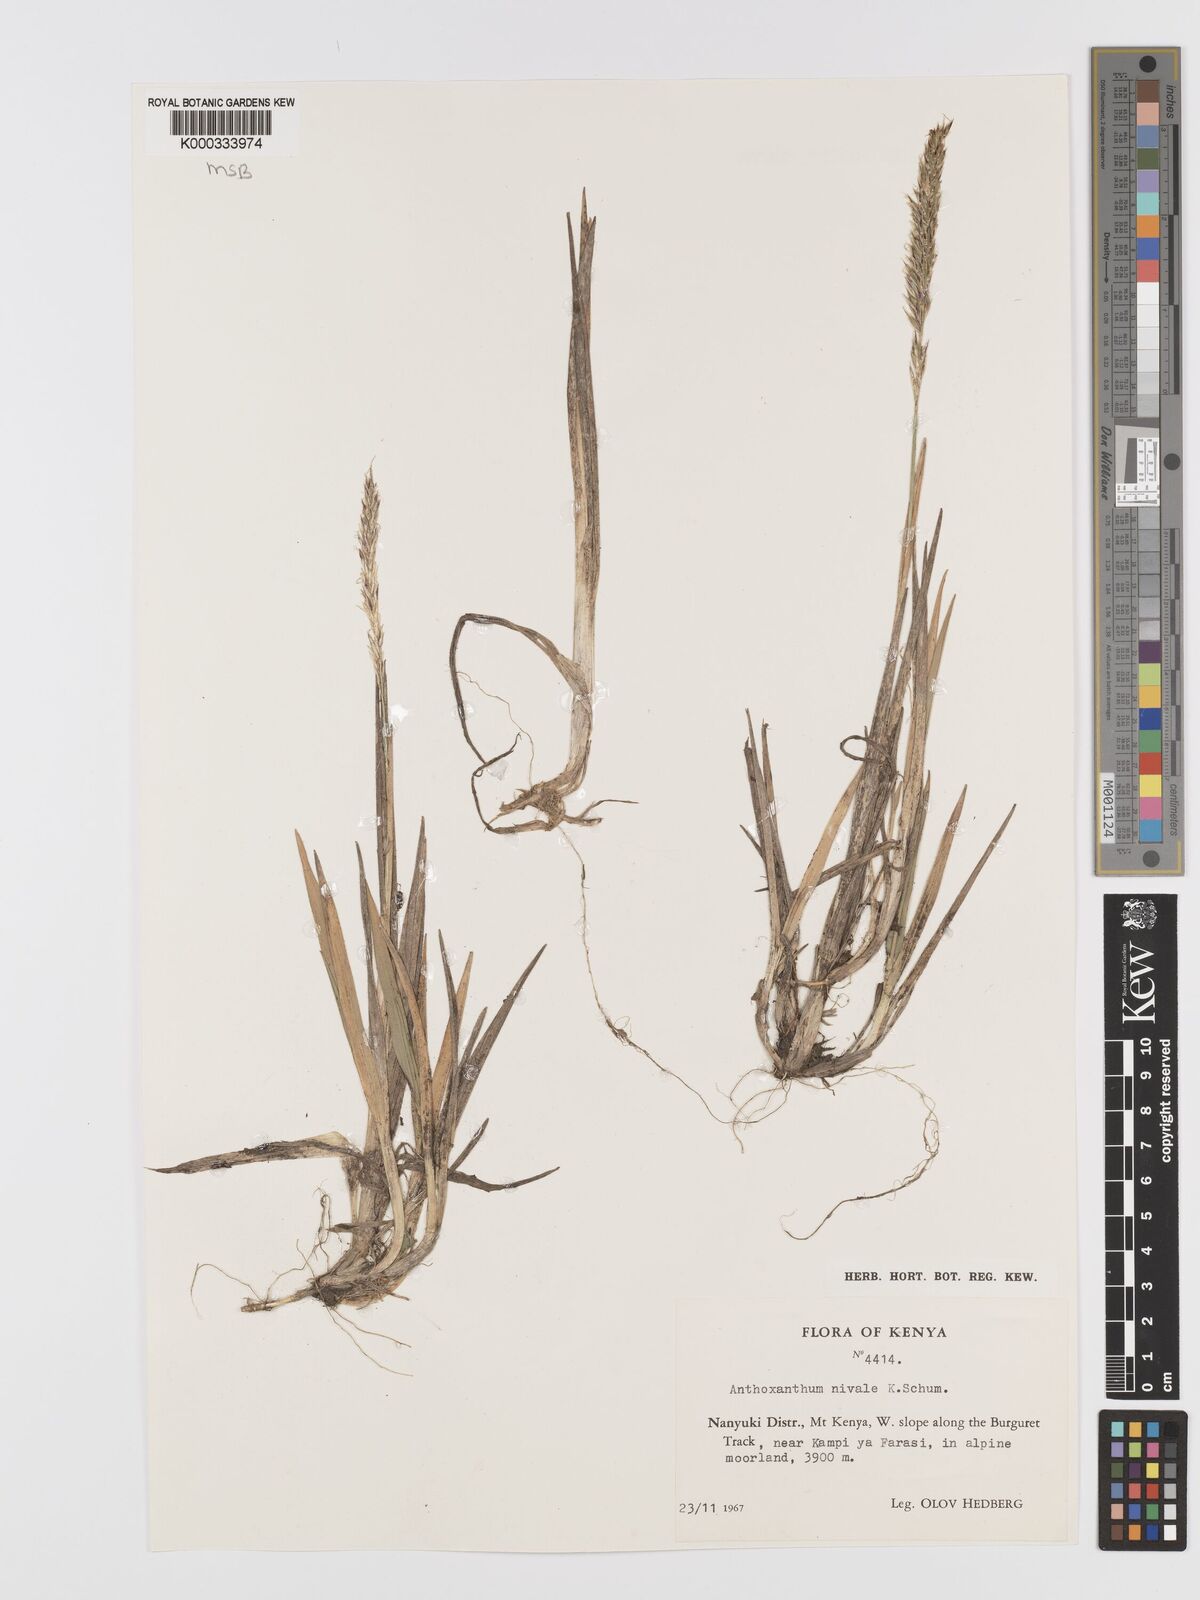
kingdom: Plantae
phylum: Tracheophyta
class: Liliopsida
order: Poales
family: Poaceae
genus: Anthoxanthum
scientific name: Anthoxanthum
